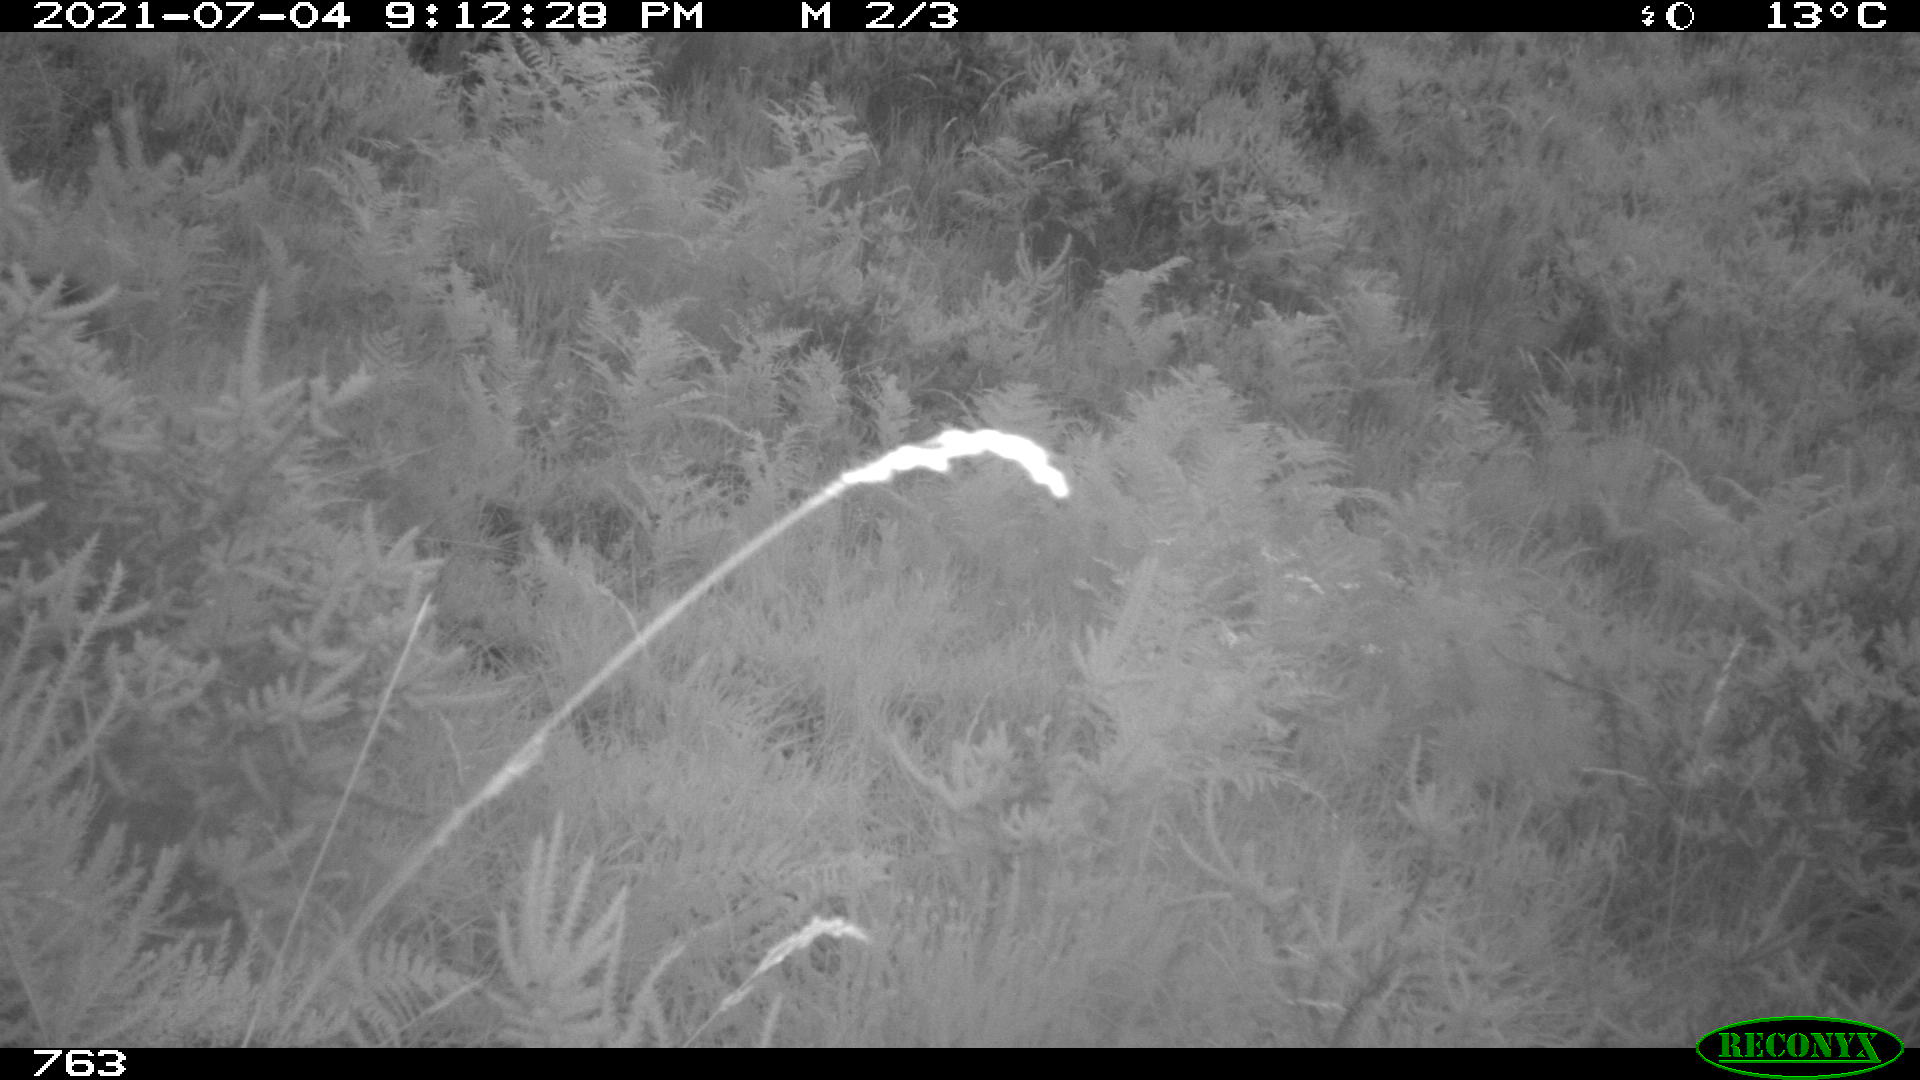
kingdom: Animalia
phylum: Chordata
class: Mammalia
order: Artiodactyla
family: Suidae
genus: Sus
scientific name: Sus scrofa
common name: Wild boar
